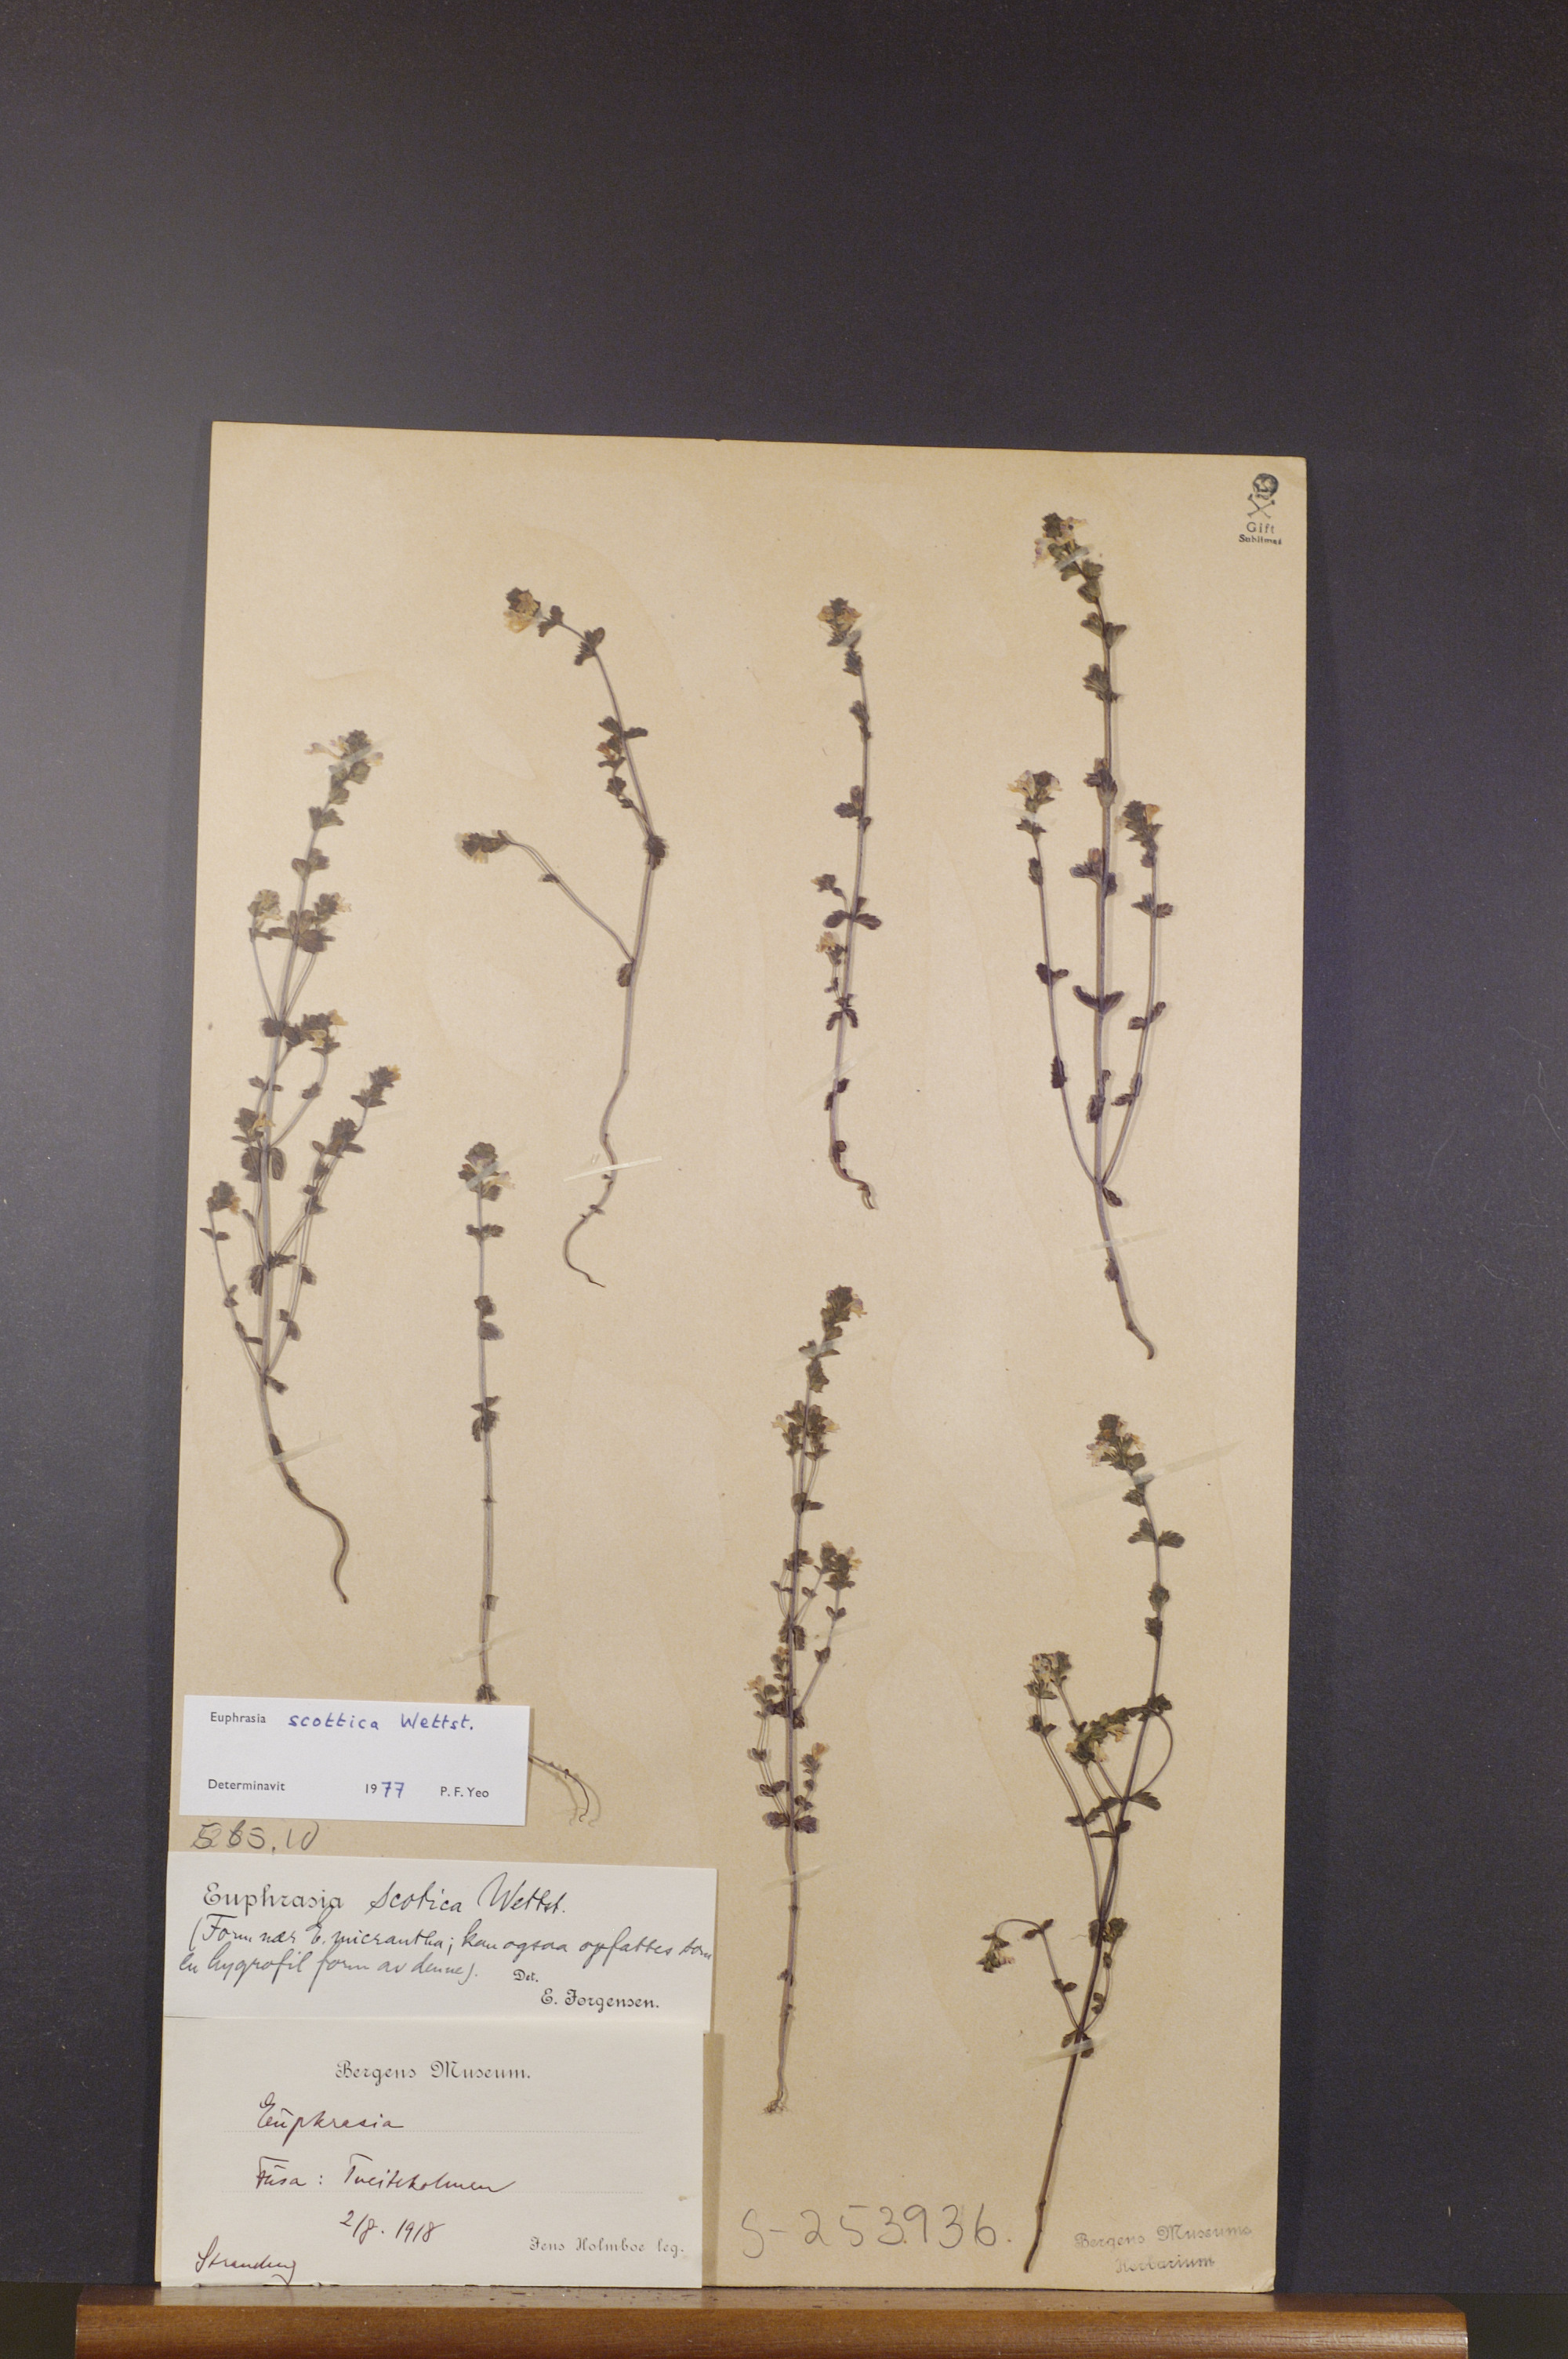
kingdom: Plantae
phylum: Tracheophyta
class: Magnoliopsida
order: Lamiales
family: Orobanchaceae
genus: Euphrasia
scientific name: Euphrasia scottica
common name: Slender scottish eyebright
